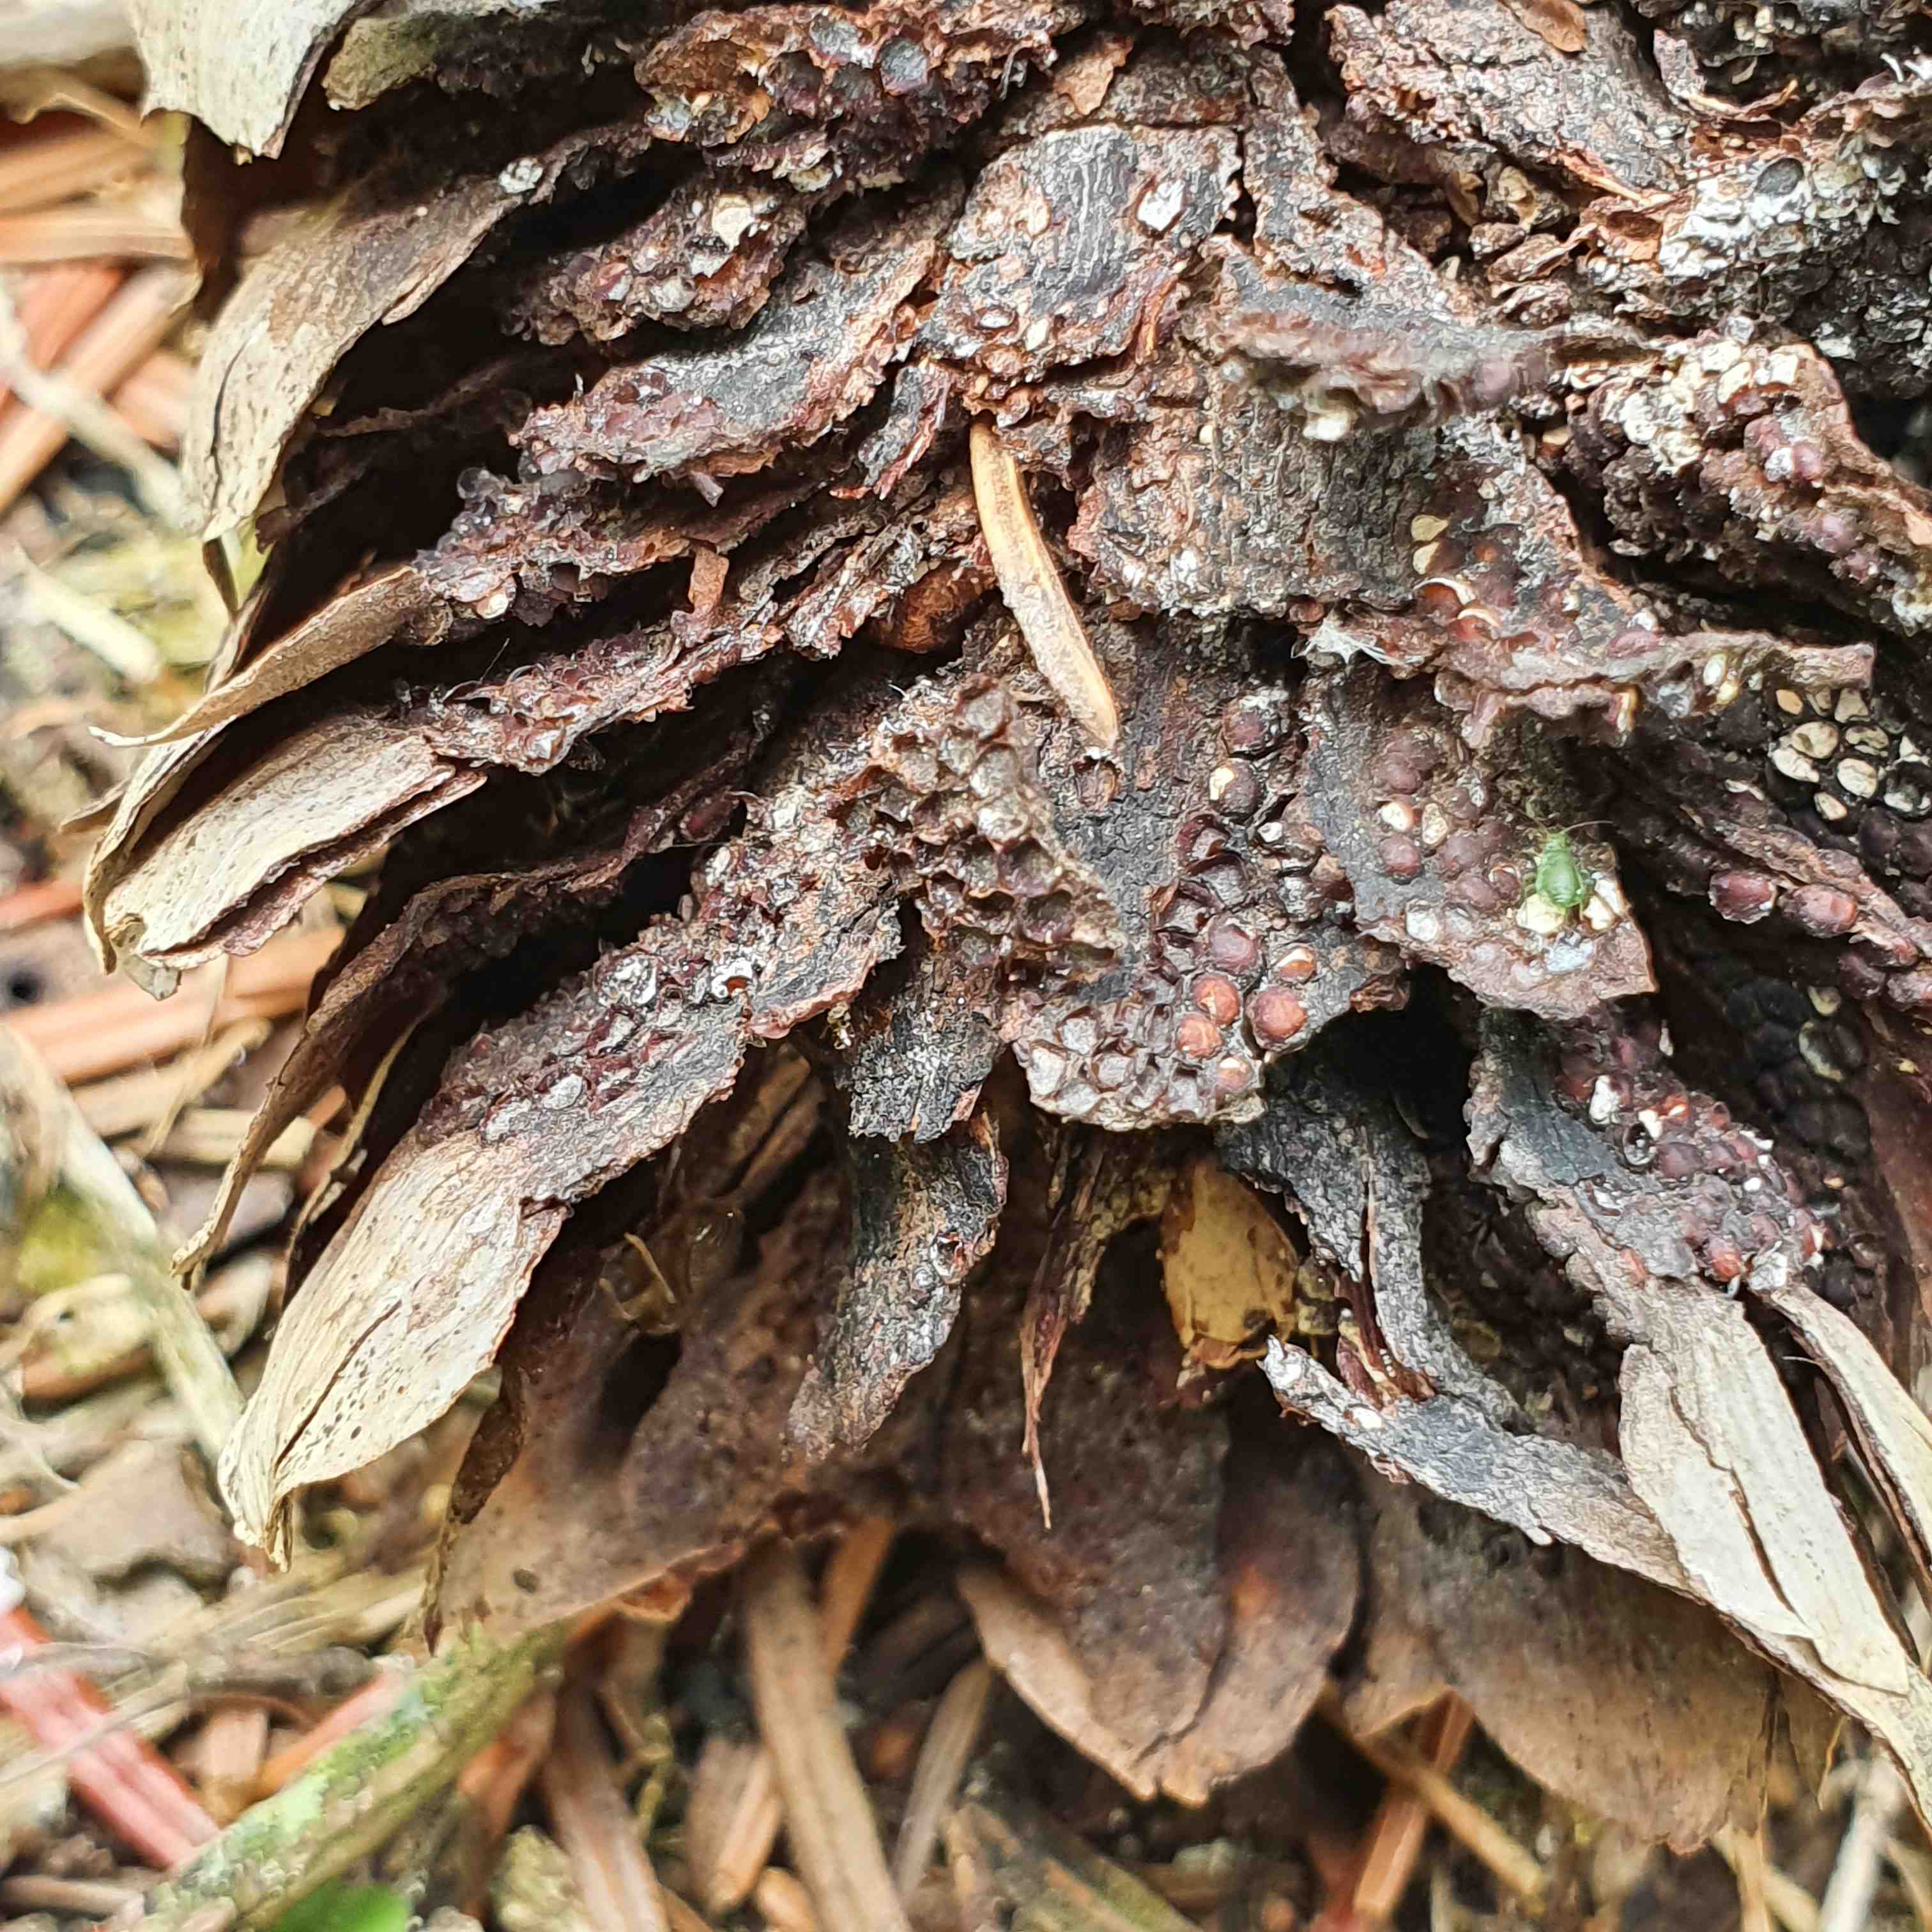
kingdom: Fungi
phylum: Basidiomycota
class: Pucciniomycetes
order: Pucciniales
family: Pucciniastraceae
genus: Thekopsora
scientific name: Thekopsora areolata
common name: grankogle-nålerust
